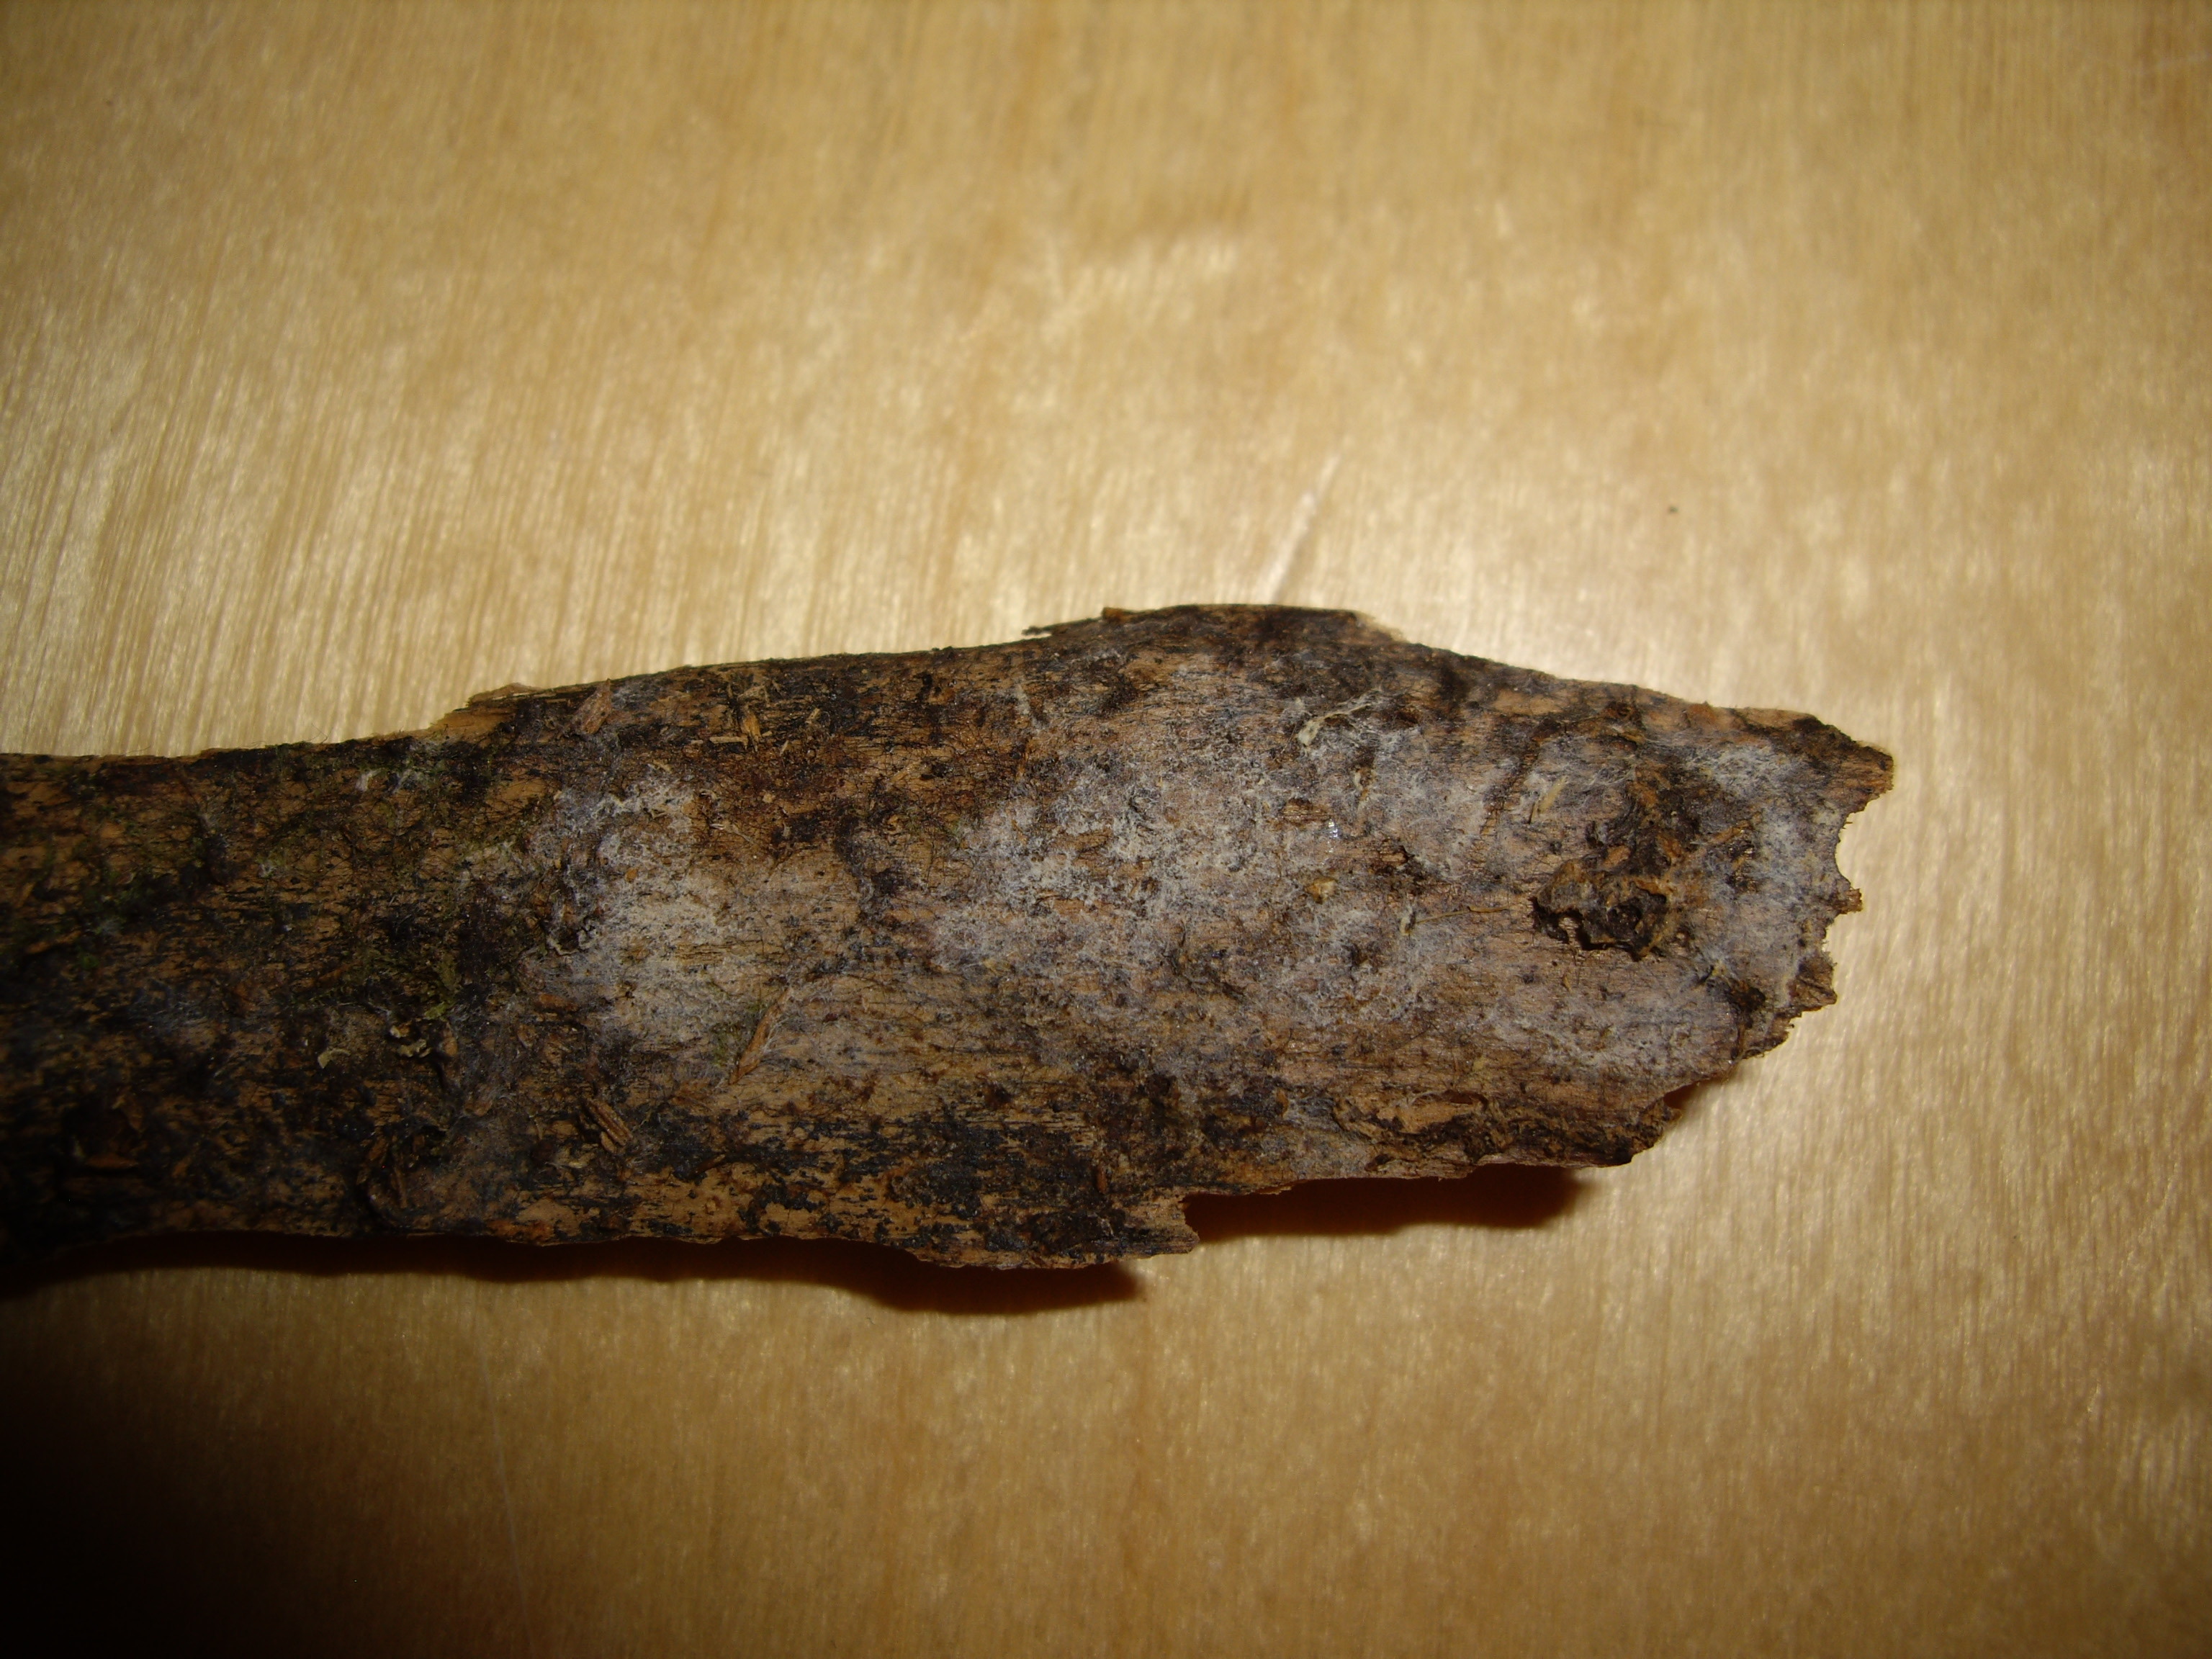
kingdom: Fungi
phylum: Basidiomycota
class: Agaricomycetes
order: Amylocorticiales
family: Amylocorticiaceae
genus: Ceraceomyces
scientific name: Ceraceomyces tessulatus
